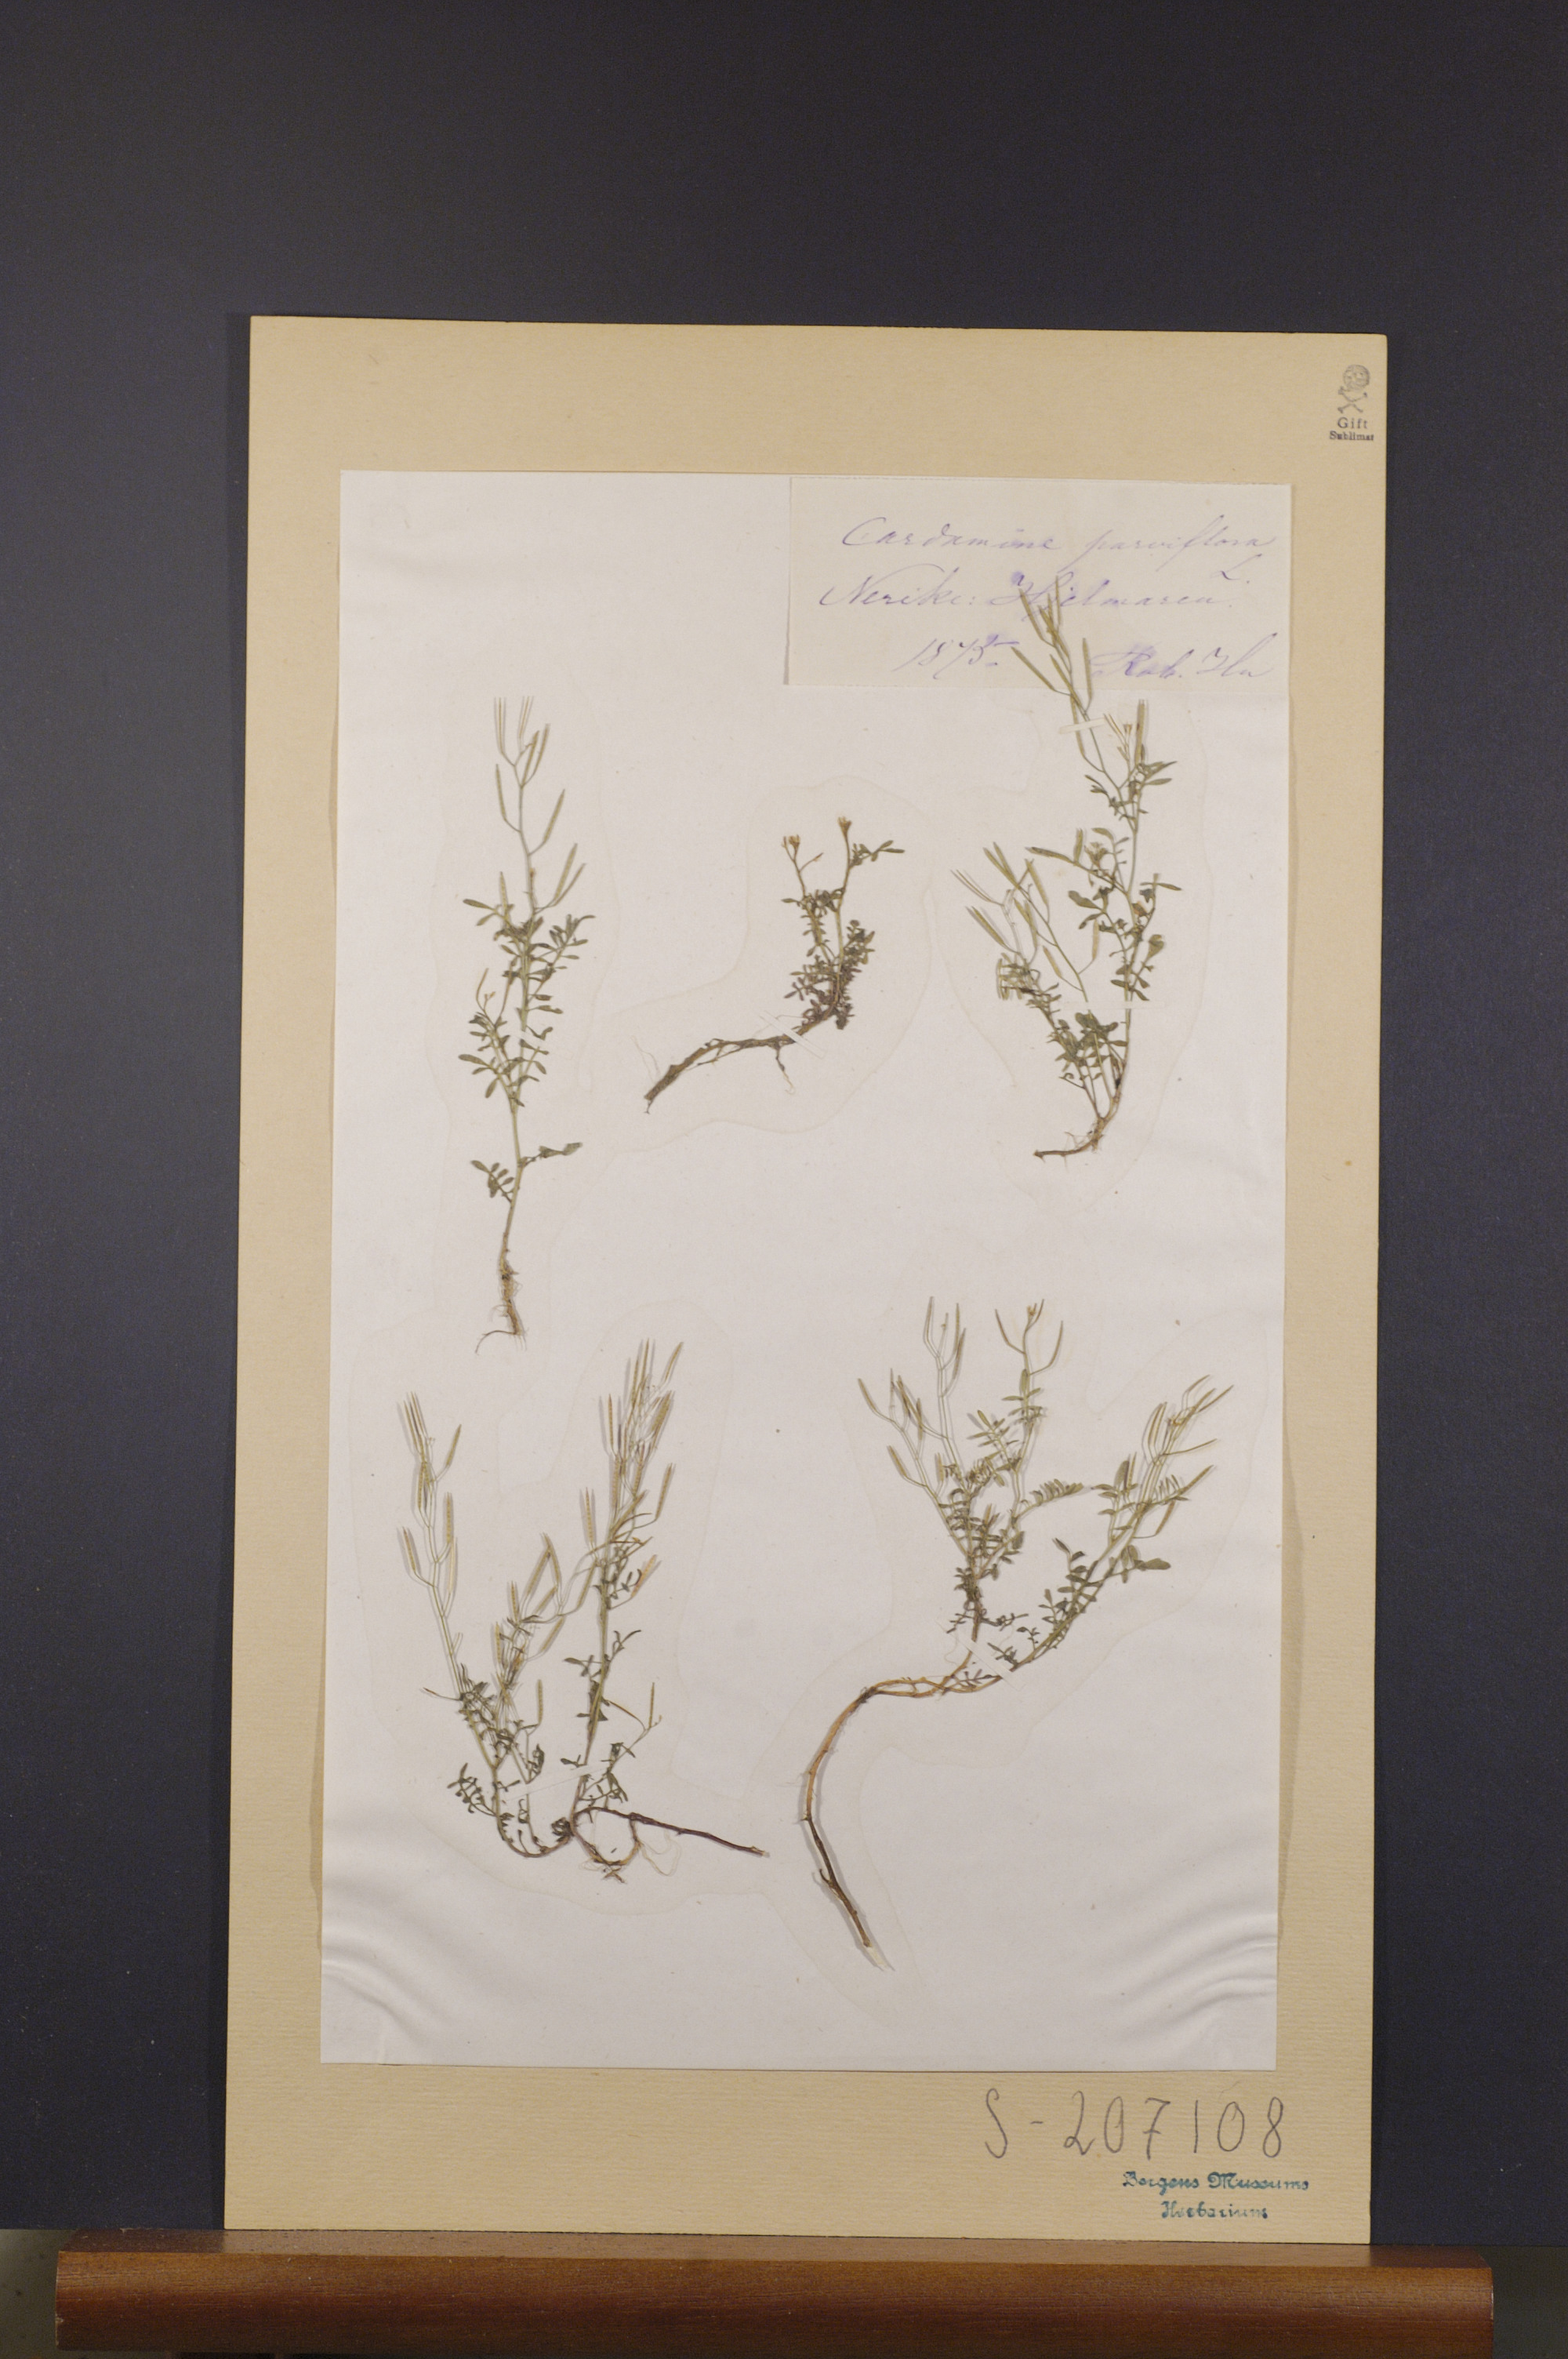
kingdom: Plantae
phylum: Tracheophyta
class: Magnoliopsida
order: Brassicales
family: Brassicaceae
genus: Cardamine
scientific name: Cardamine parviflora
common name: Sand bittercress
